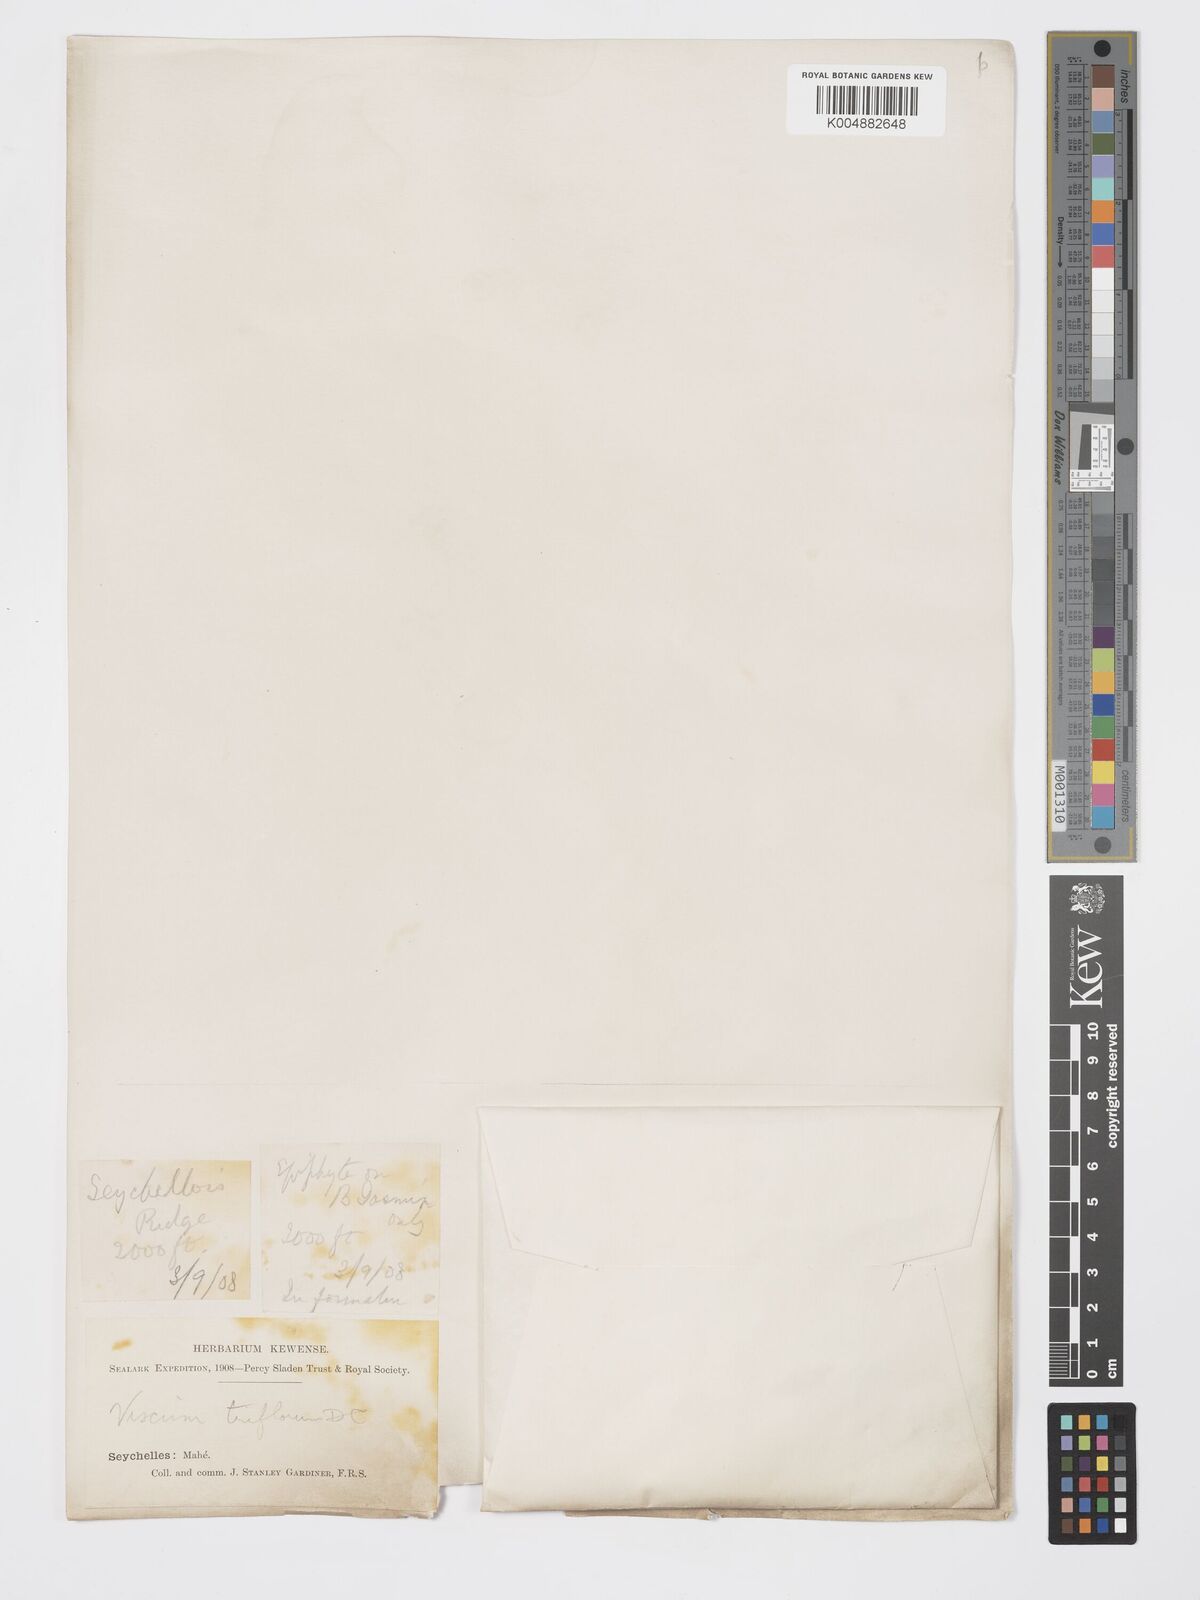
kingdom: Plantae
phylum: Tracheophyta
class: Magnoliopsida
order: Santalales
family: Viscaceae
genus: Viscum
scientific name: Viscum triflorum
